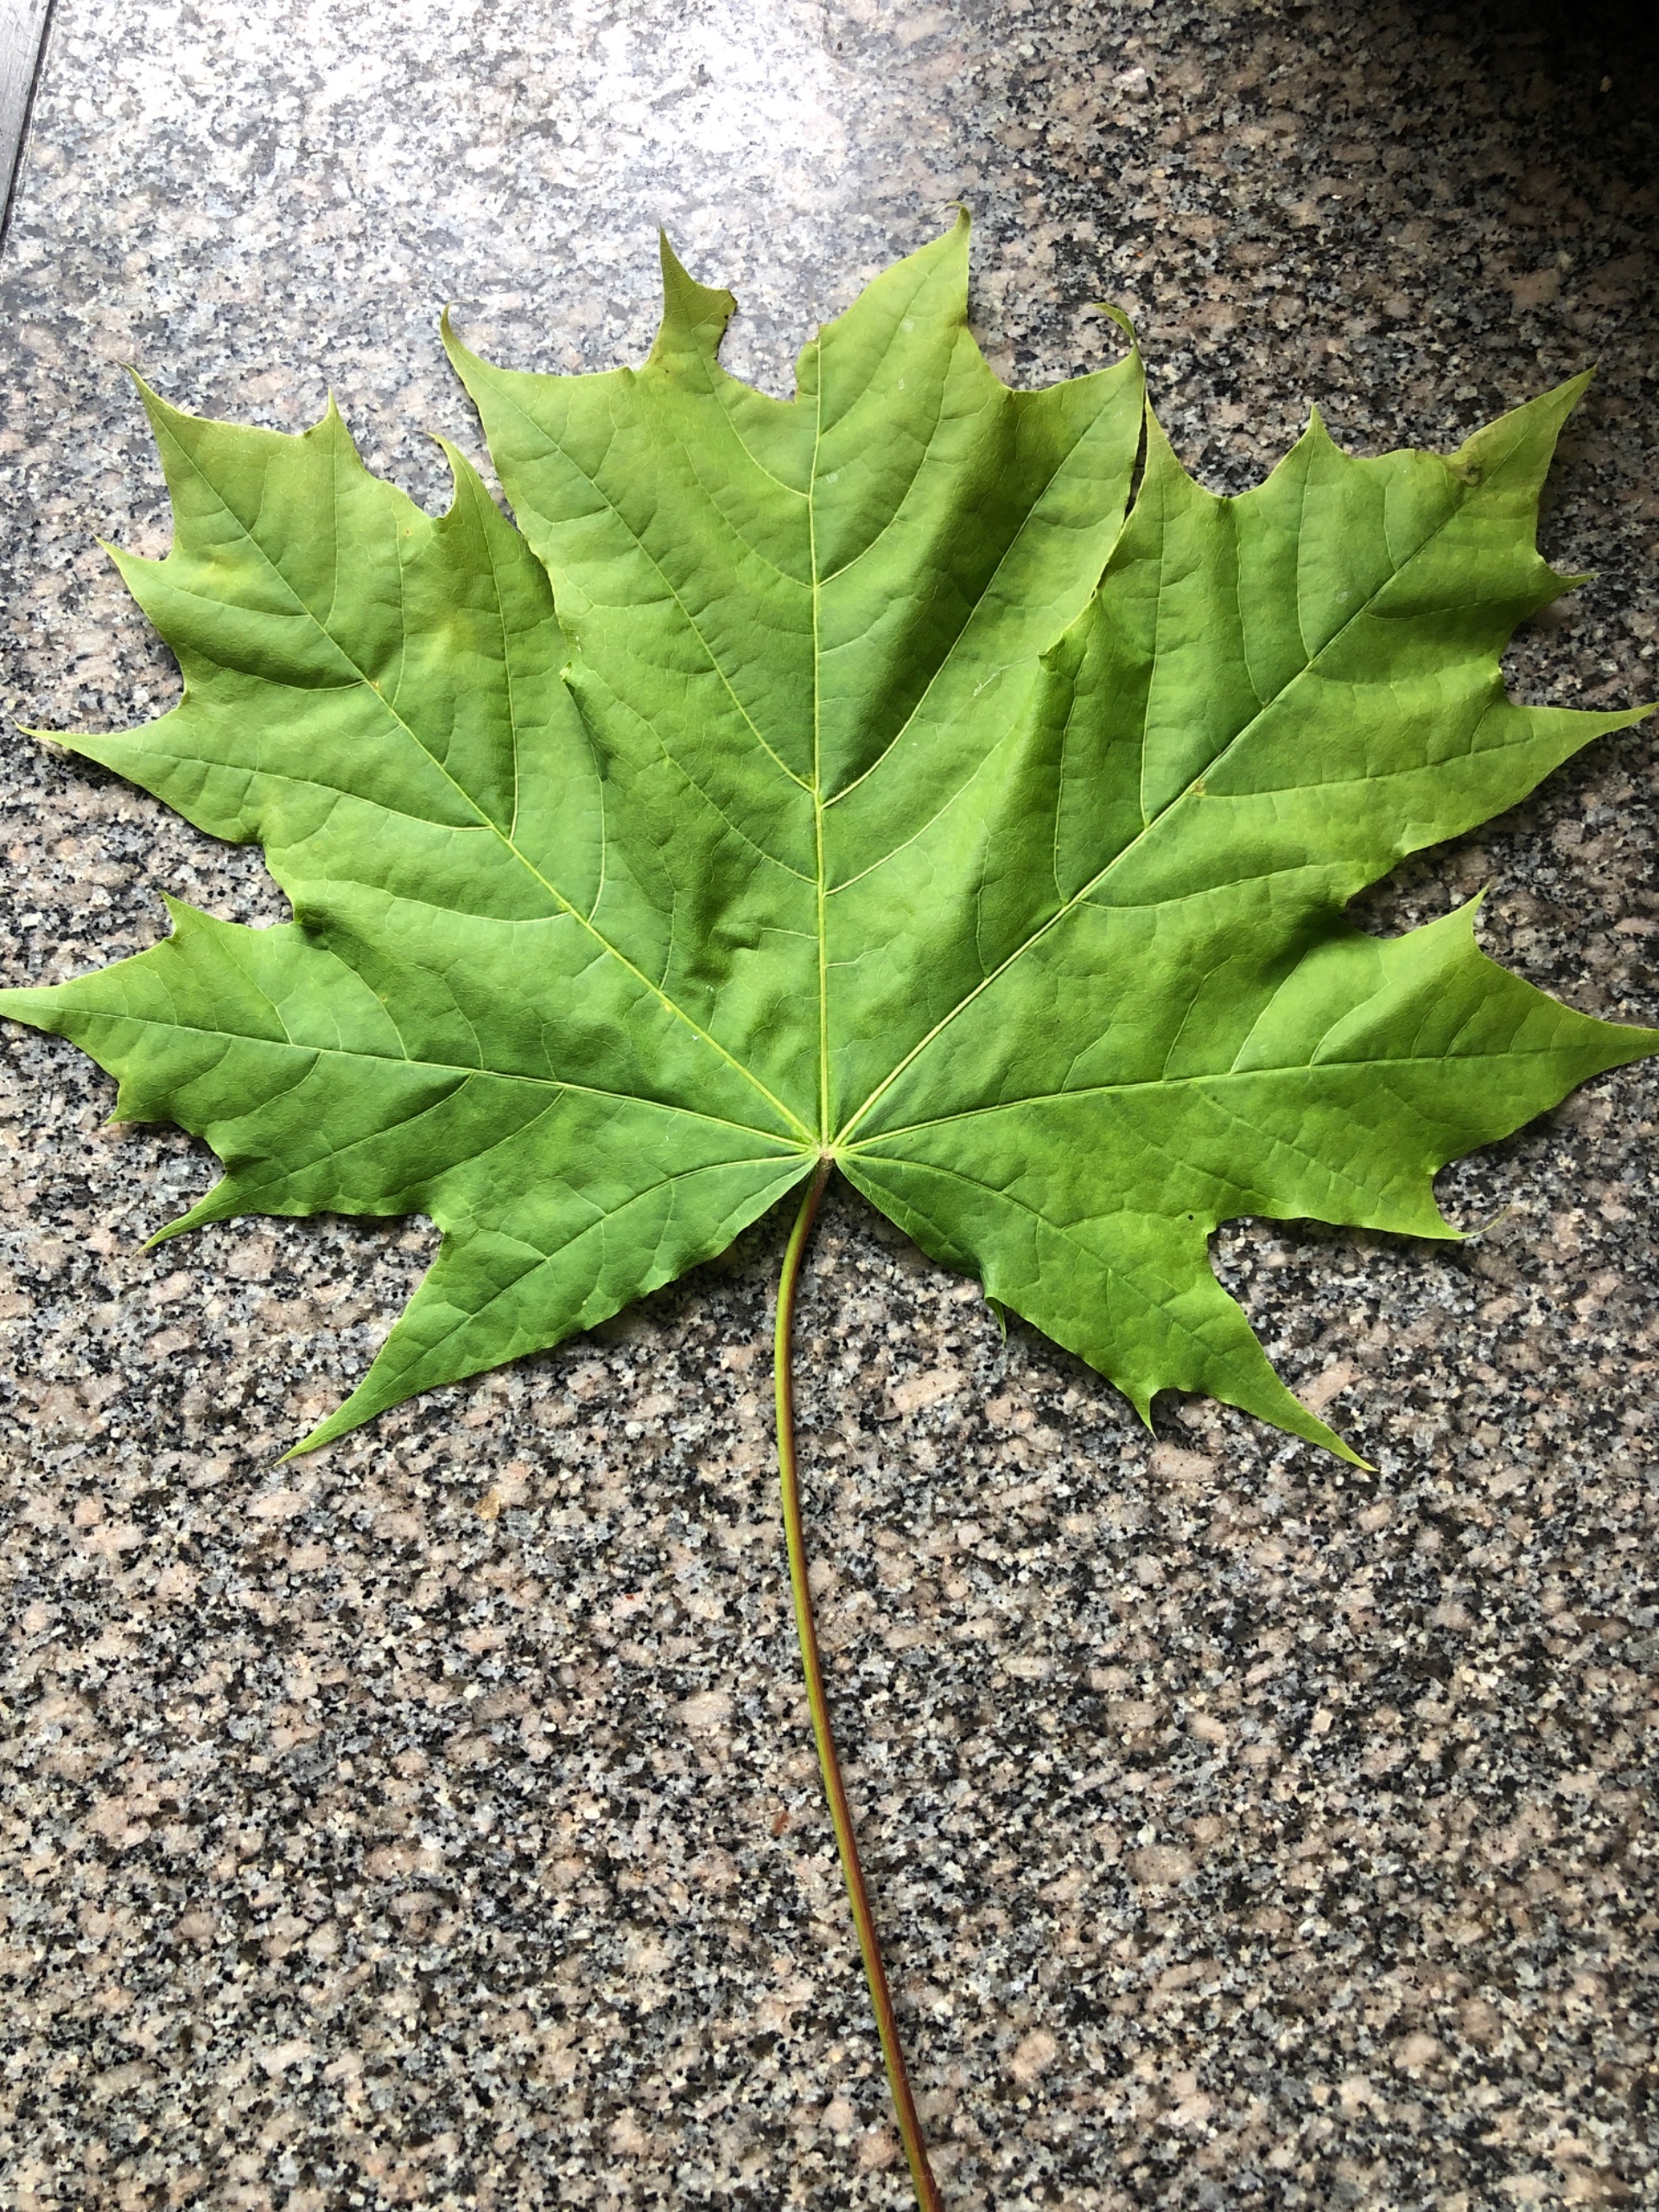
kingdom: Plantae
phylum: Tracheophyta
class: Magnoliopsida
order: Sapindales
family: Sapindaceae
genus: Acer
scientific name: Acer platanoides
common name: Spids-løn
